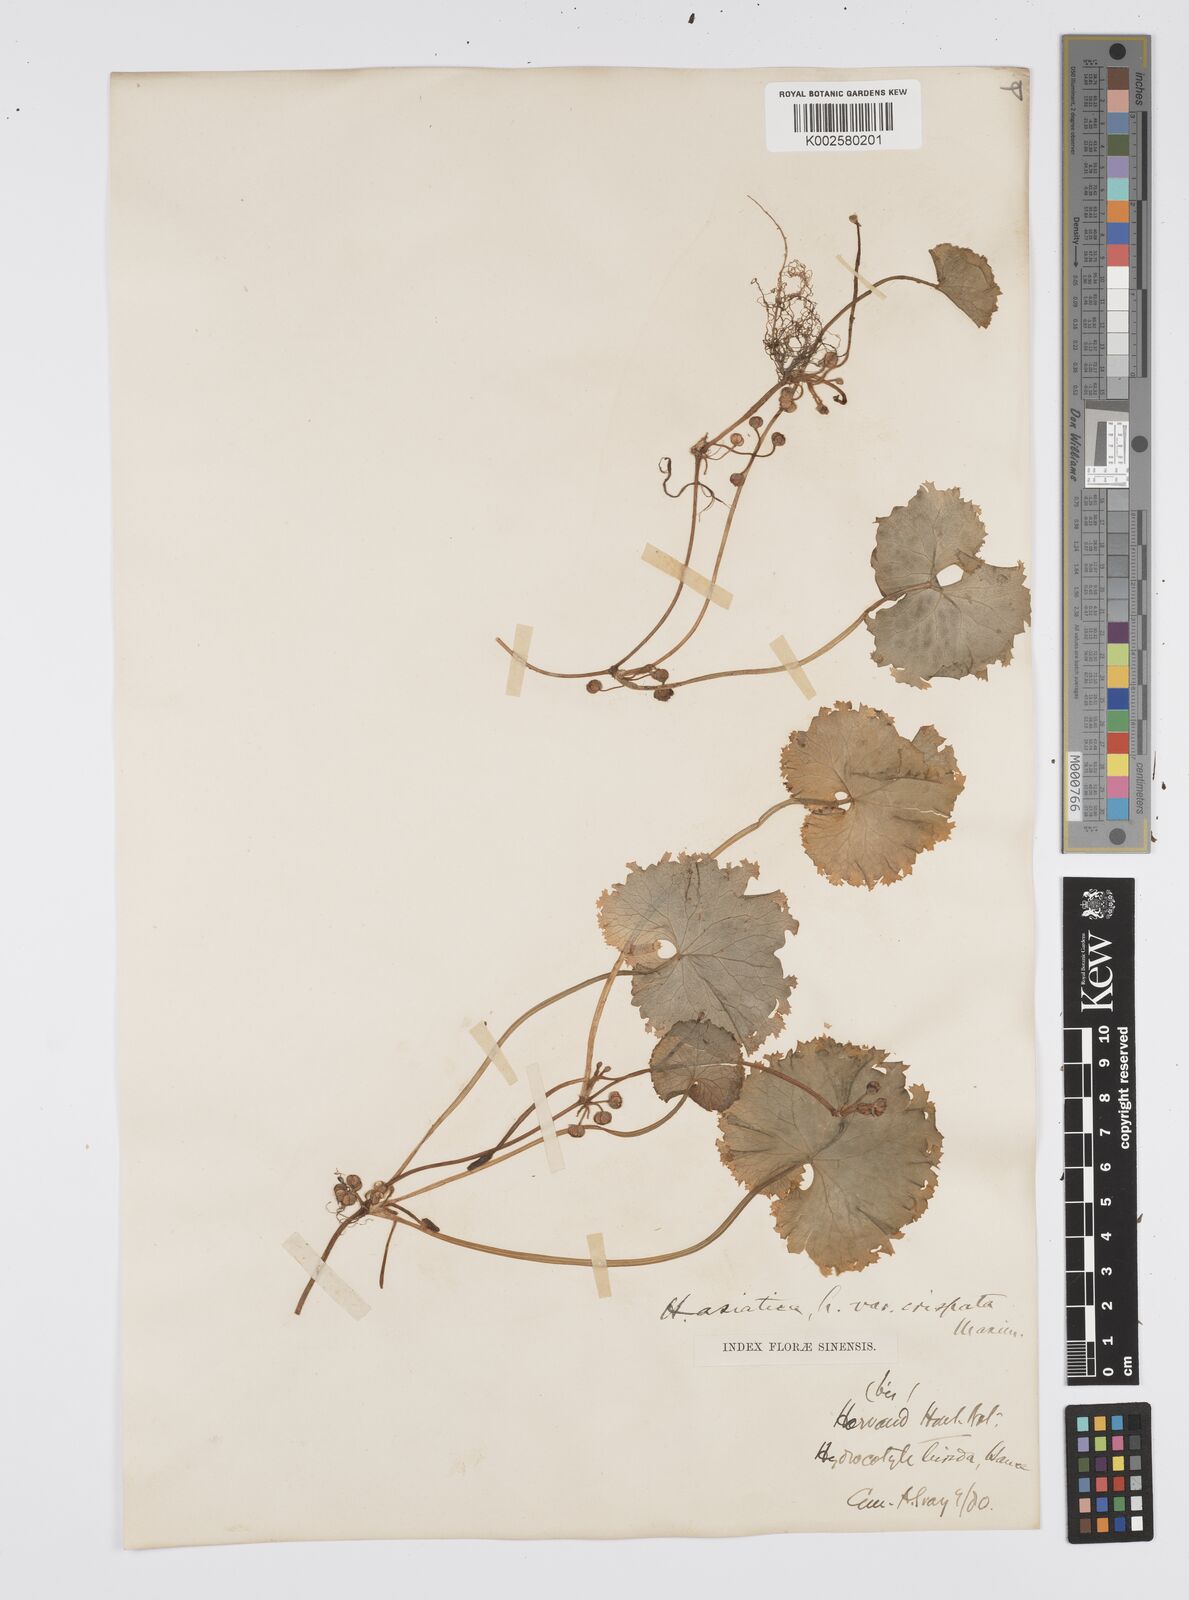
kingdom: Plantae
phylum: Tracheophyta
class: Magnoliopsida
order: Apiales
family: Apiaceae
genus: Centella
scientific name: Centella asiatica
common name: Spadeleaf
